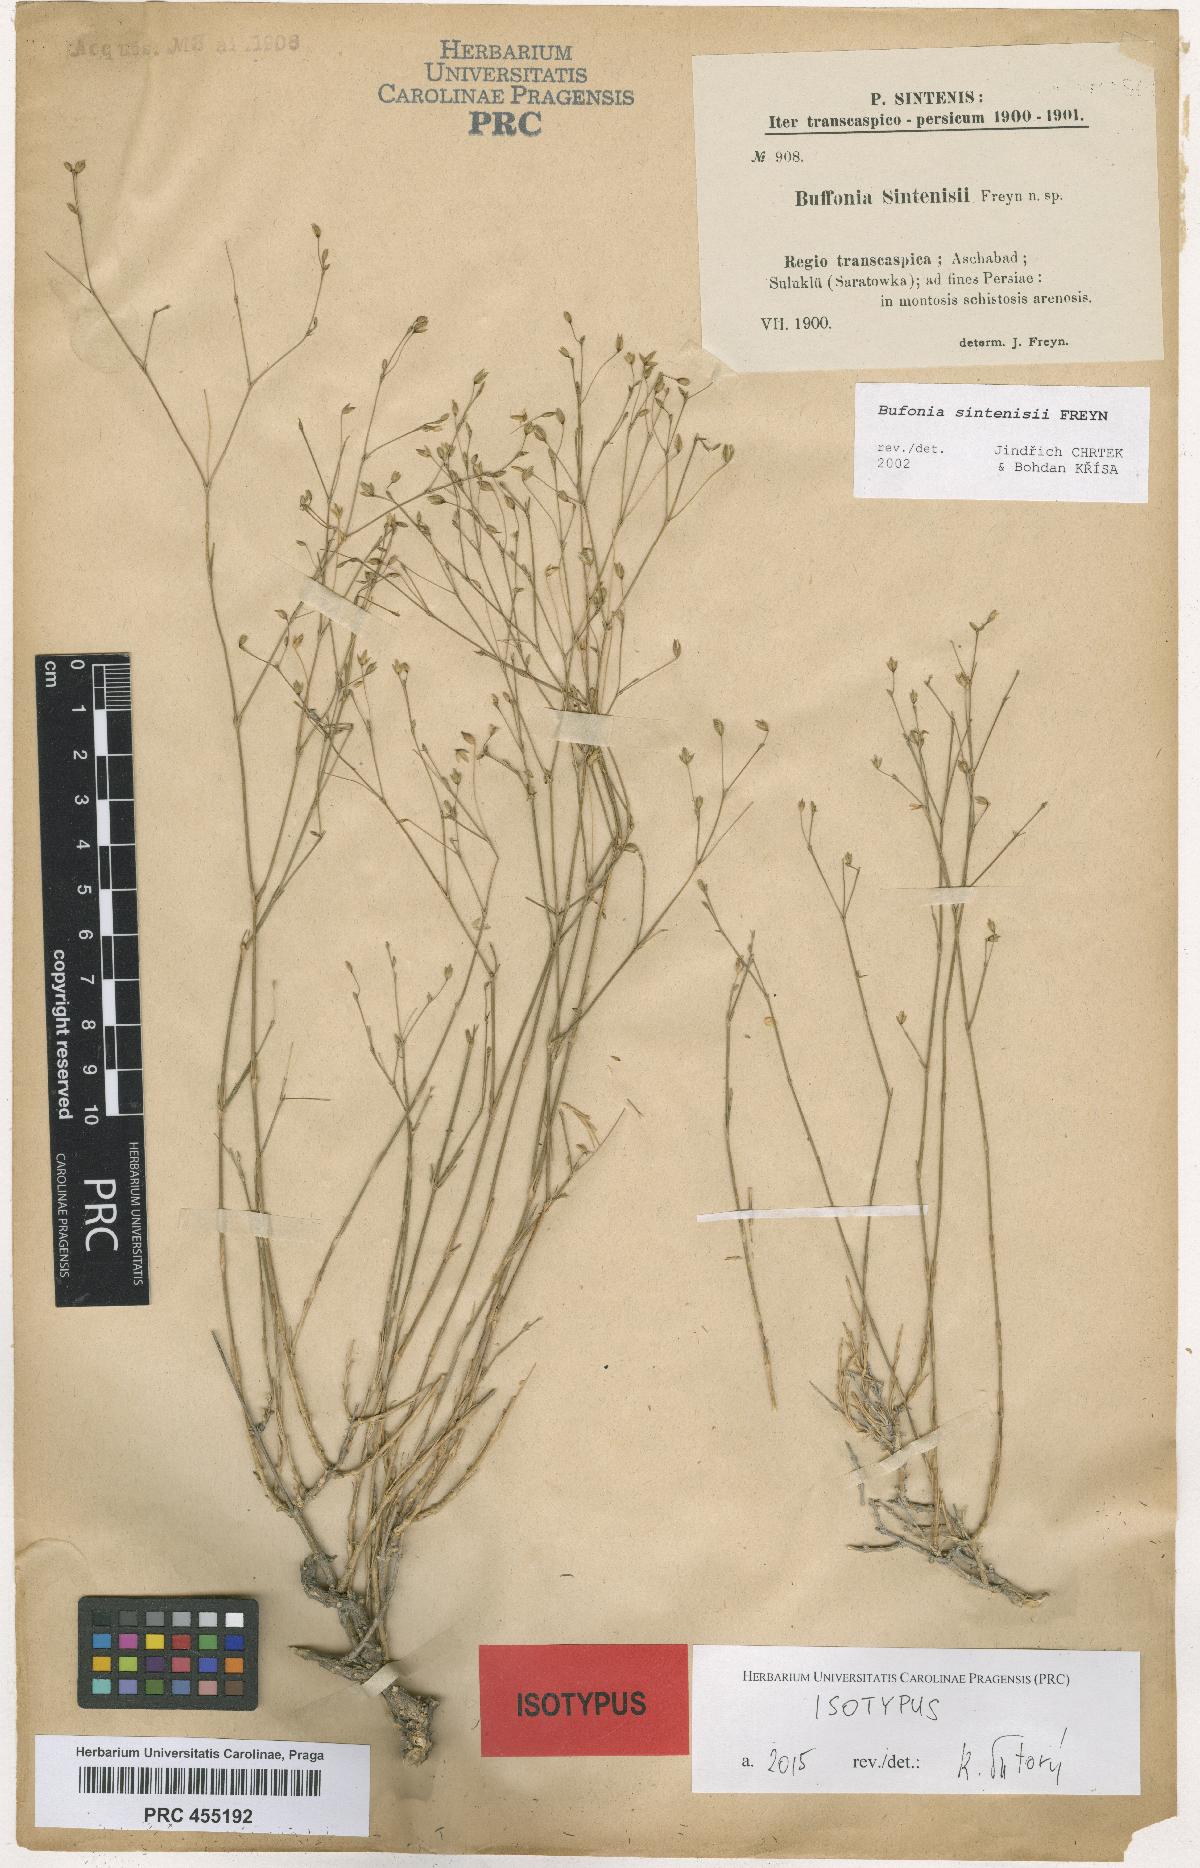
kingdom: Plantae
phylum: Tracheophyta
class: Magnoliopsida
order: Caryophyllales
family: Caryophyllaceae
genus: Bufonia
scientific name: Bufonia sintenisii
